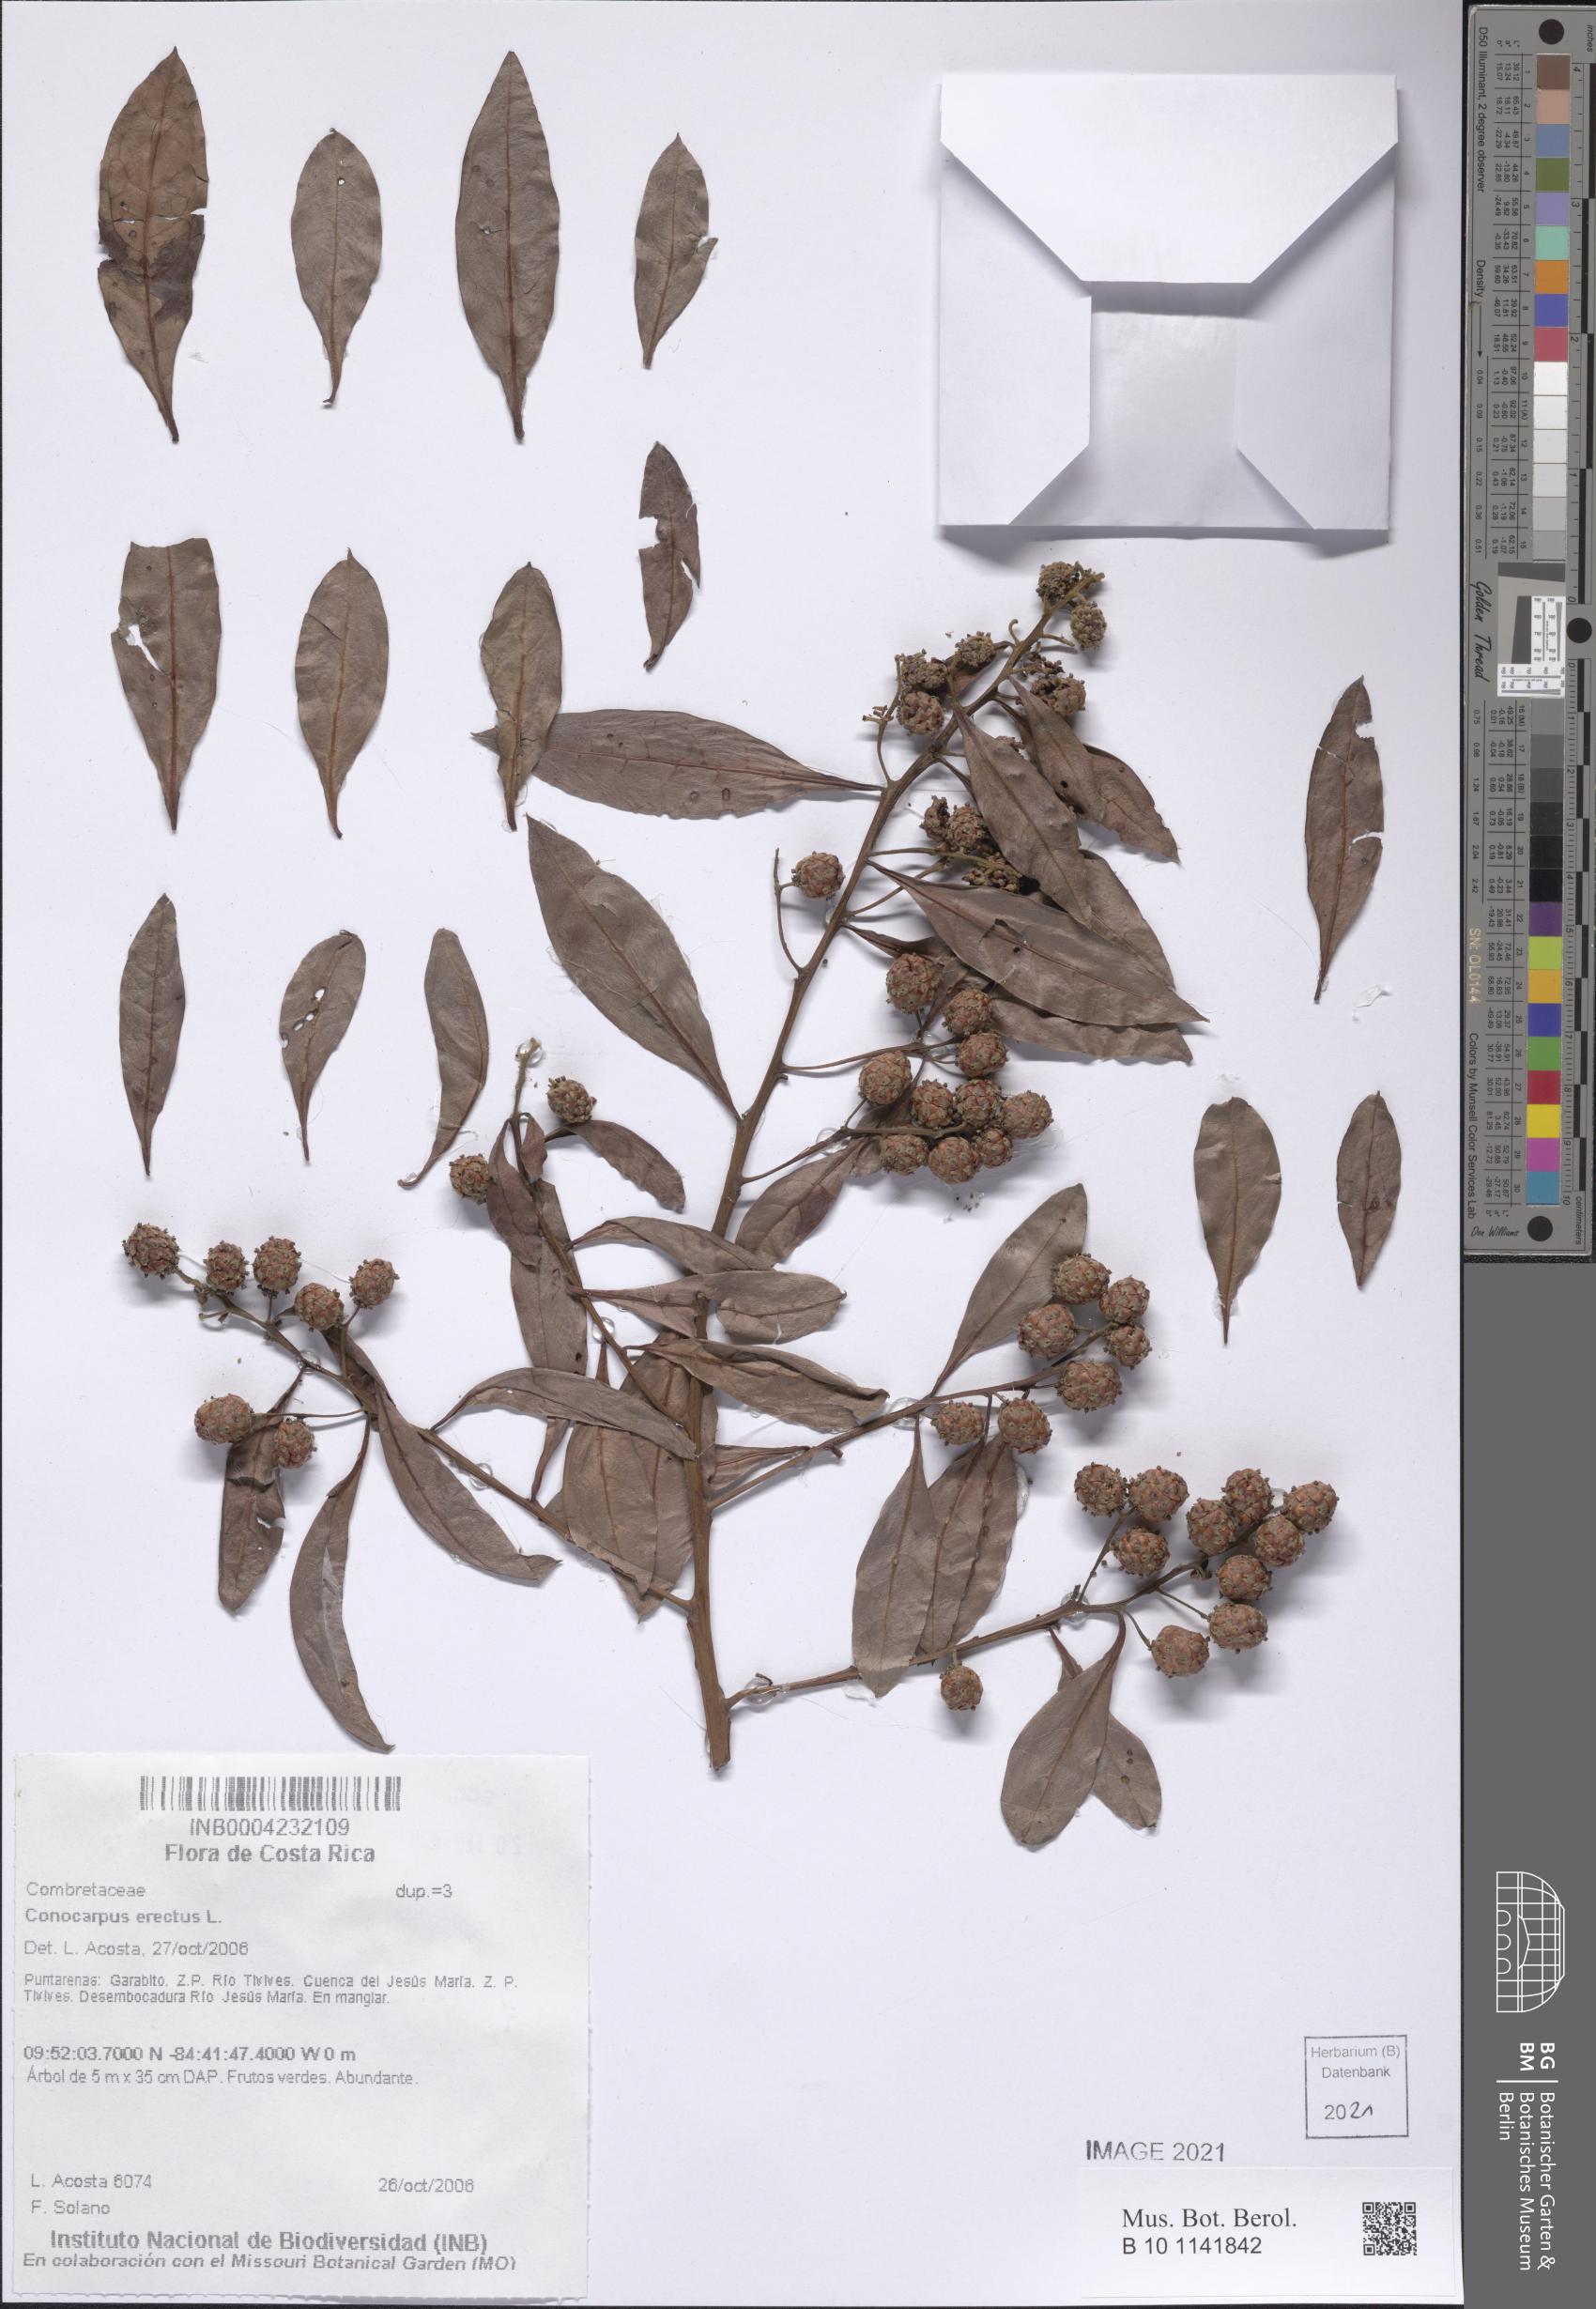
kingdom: Plantae
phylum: Tracheophyta
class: Magnoliopsida
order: Myrtales
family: Combretaceae
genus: Conocarpus
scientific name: Conocarpus erectus
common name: Button mangrove
